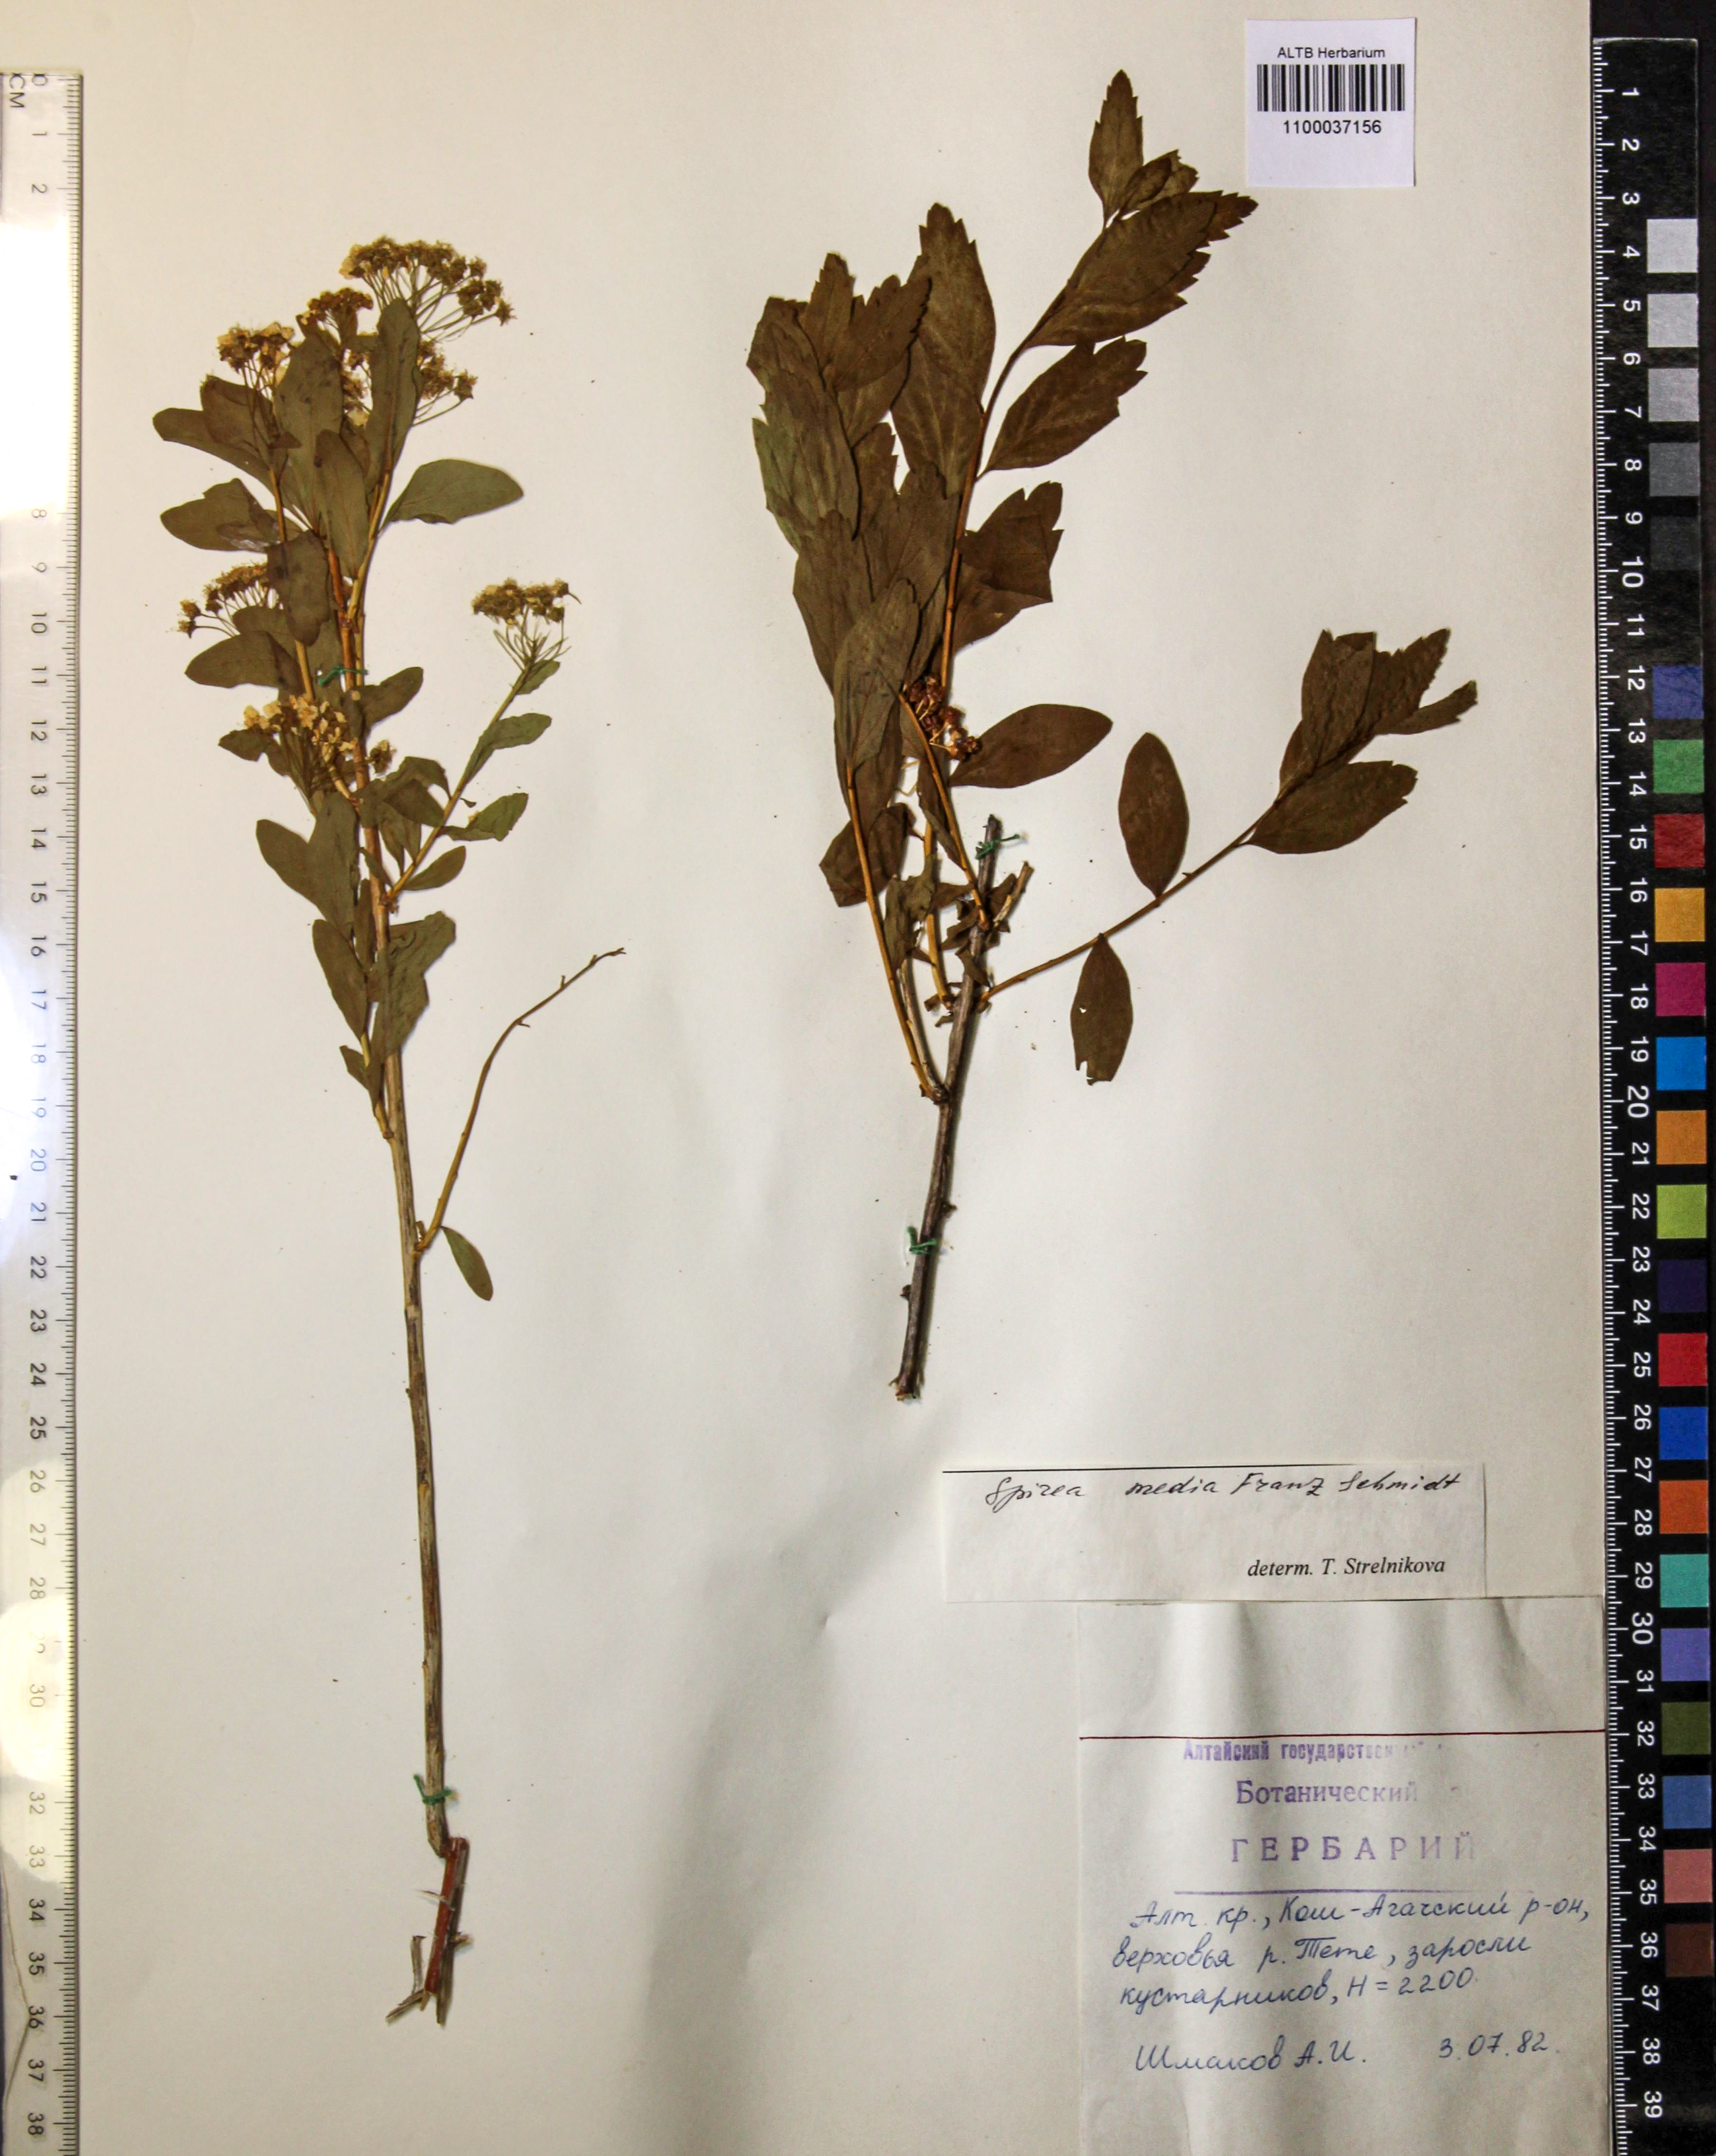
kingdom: Plantae
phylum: Tracheophyta
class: Magnoliopsida
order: Rosales
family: Rosaceae
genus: Spiraea
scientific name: Spiraea media
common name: Russian spiraea
